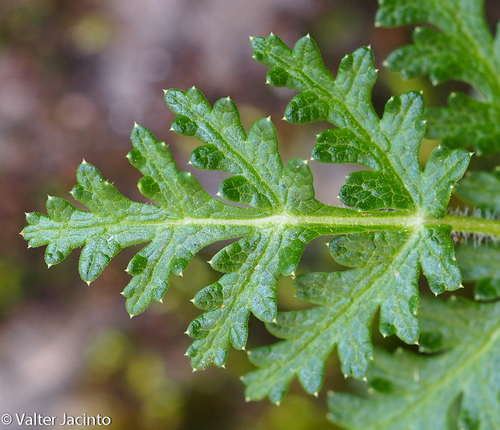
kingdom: Plantae
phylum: Tracheophyta
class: Magnoliopsida
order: Apiales
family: Apiaceae
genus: Thapsia
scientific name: Thapsia villosa
